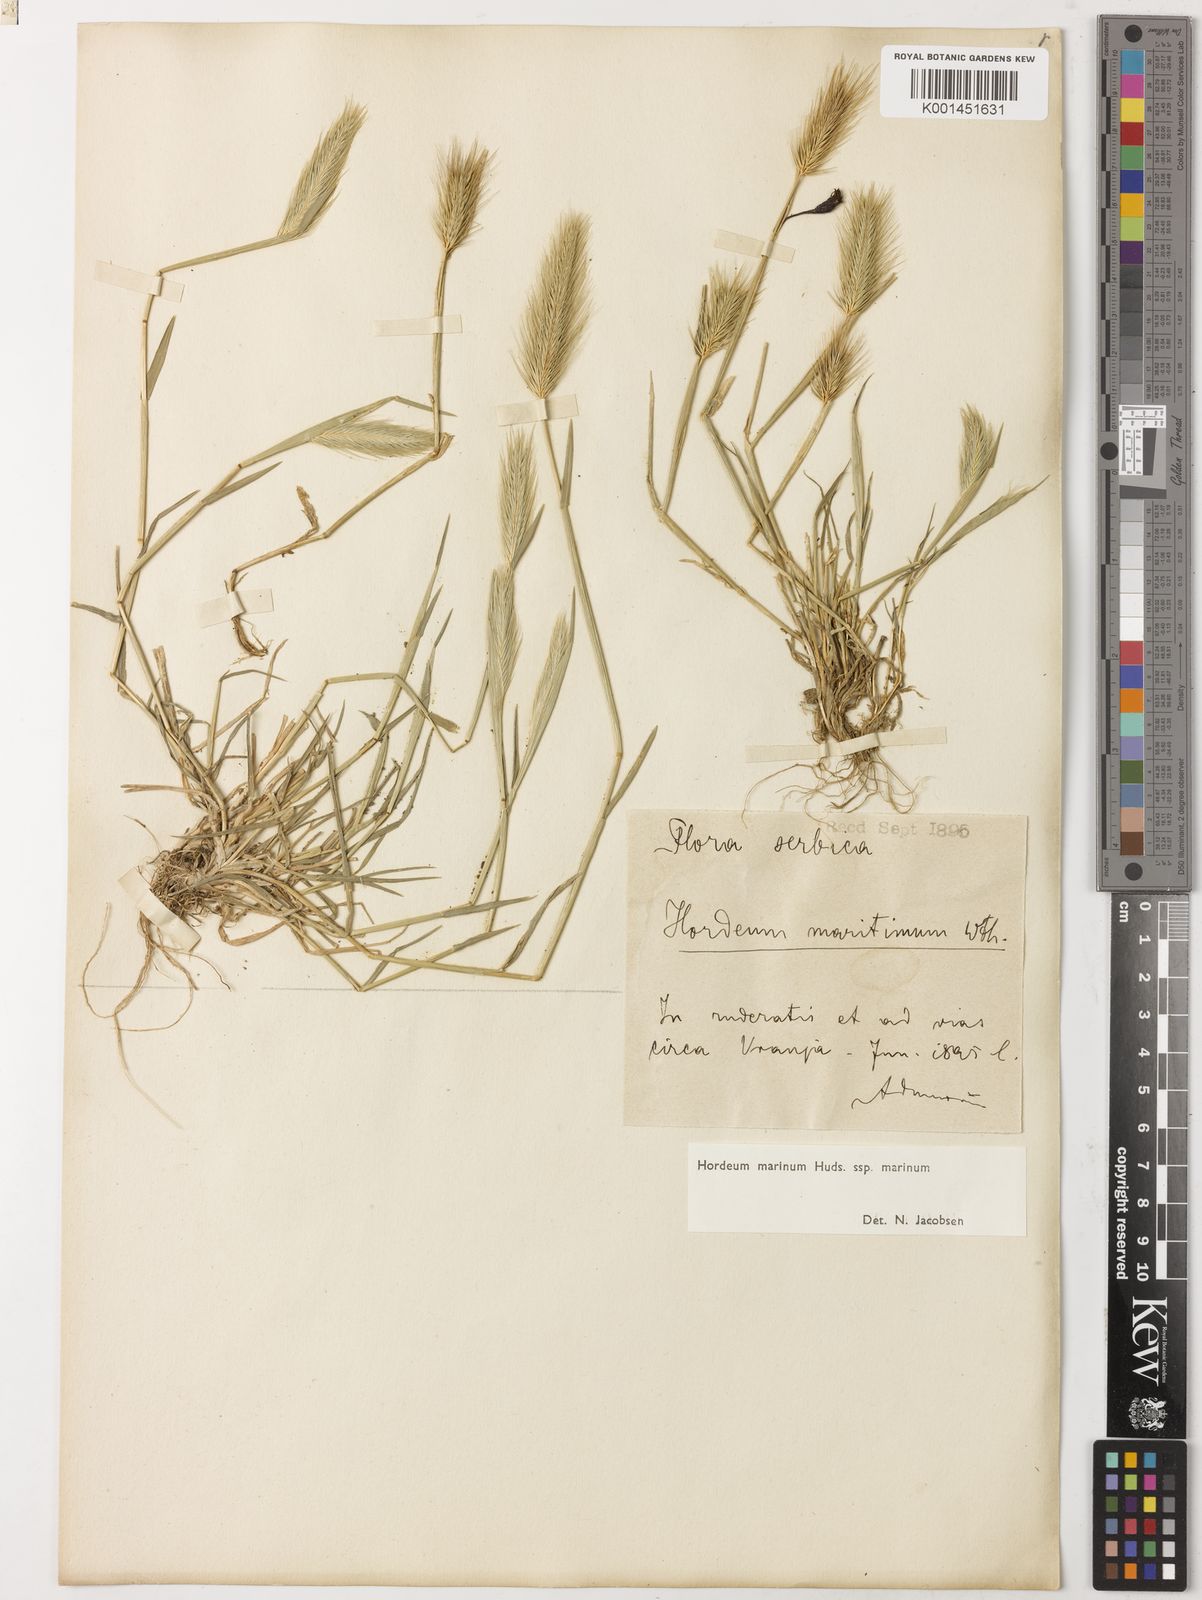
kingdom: Plantae
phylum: Tracheophyta
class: Liliopsida
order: Poales
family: Poaceae
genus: Hordeum
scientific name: Hordeum marinum
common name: Sea barley
